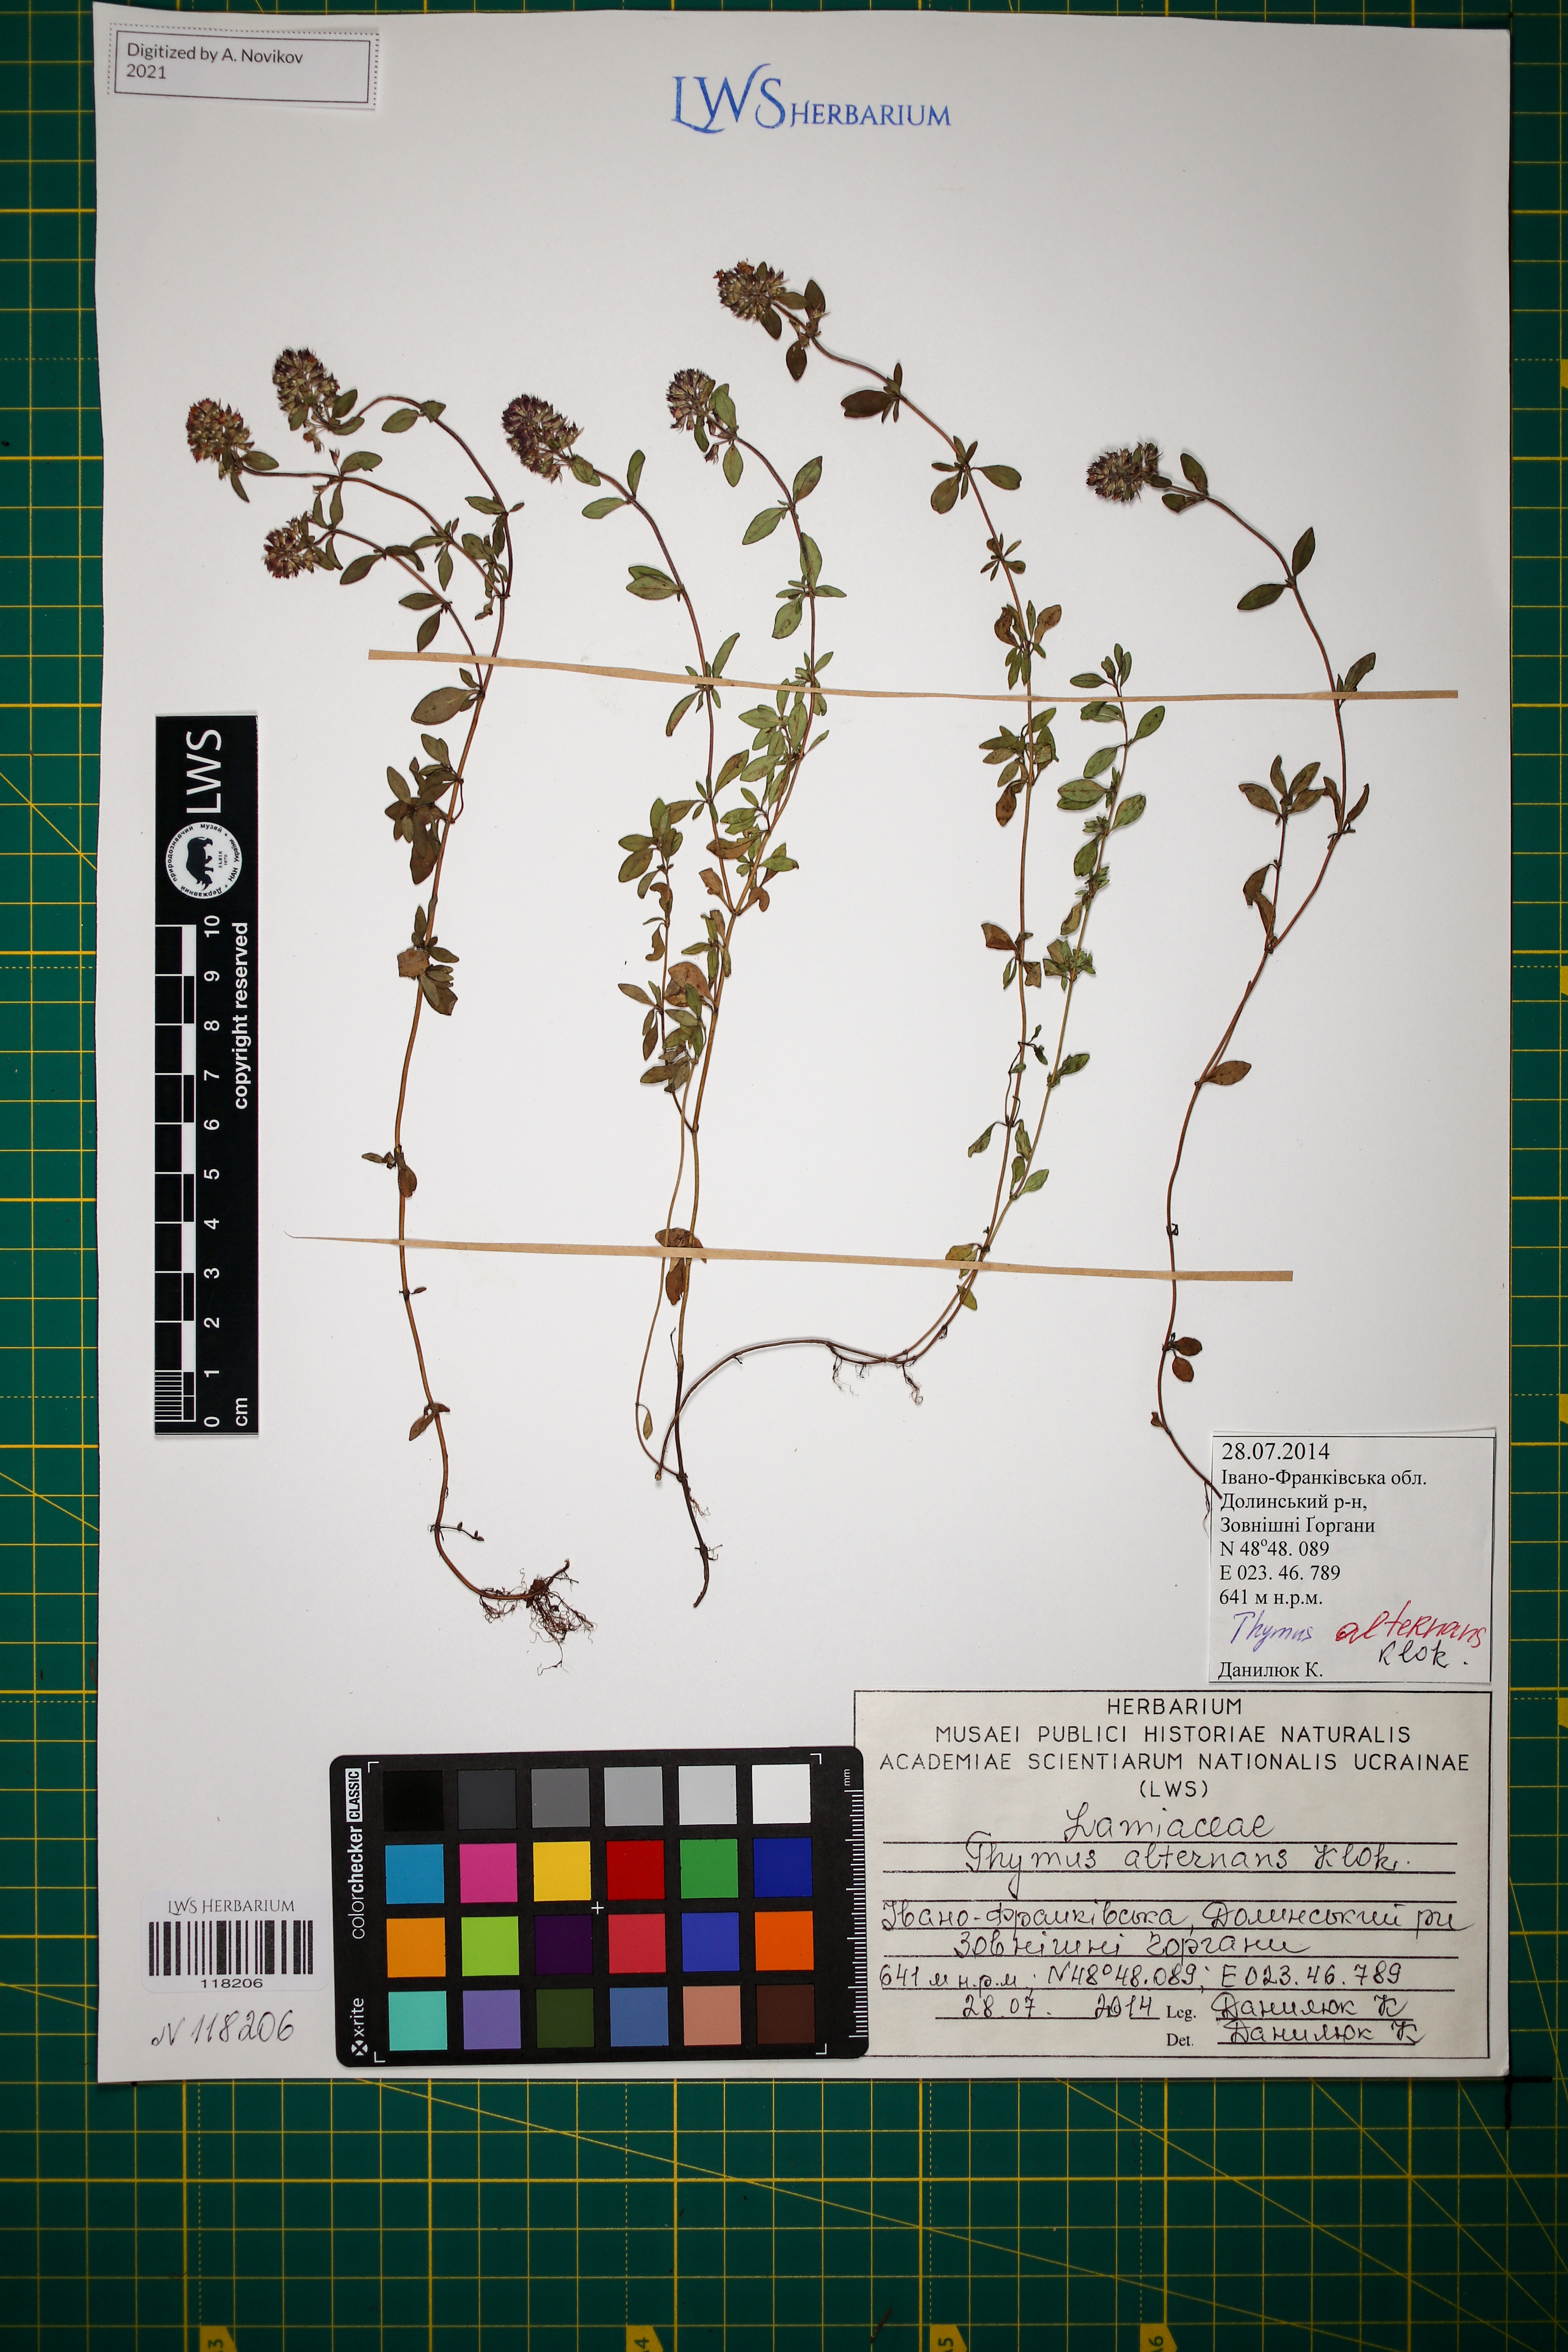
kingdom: Plantae
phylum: Tracheophyta
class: Magnoliopsida
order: Lamiales
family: Lamiaceae
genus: Thymus
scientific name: Thymus alternans
